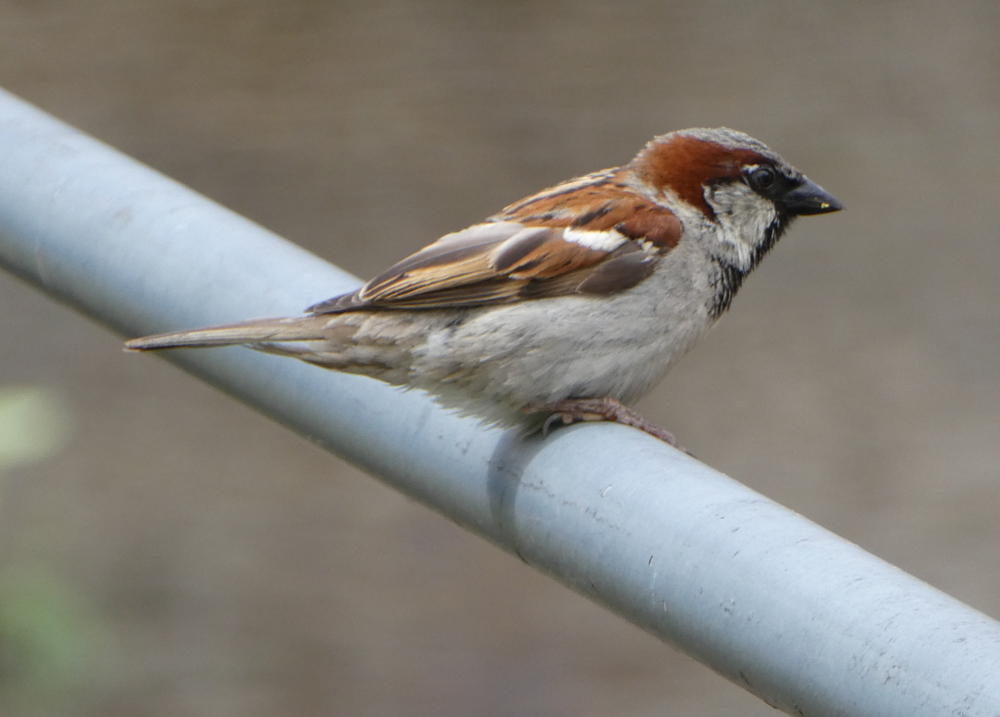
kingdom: Animalia
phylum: Chordata
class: Aves
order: Passeriformes
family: Passeridae
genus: Passer
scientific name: Passer domesticus
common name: House sparrow
